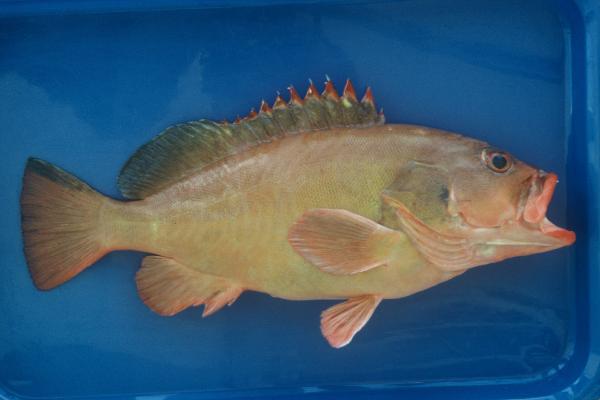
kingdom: Animalia
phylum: Chordata
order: Perciformes
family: Serranidae
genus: Epinephelus
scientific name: Epinephelus retouti
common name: Red-tipped grouper
